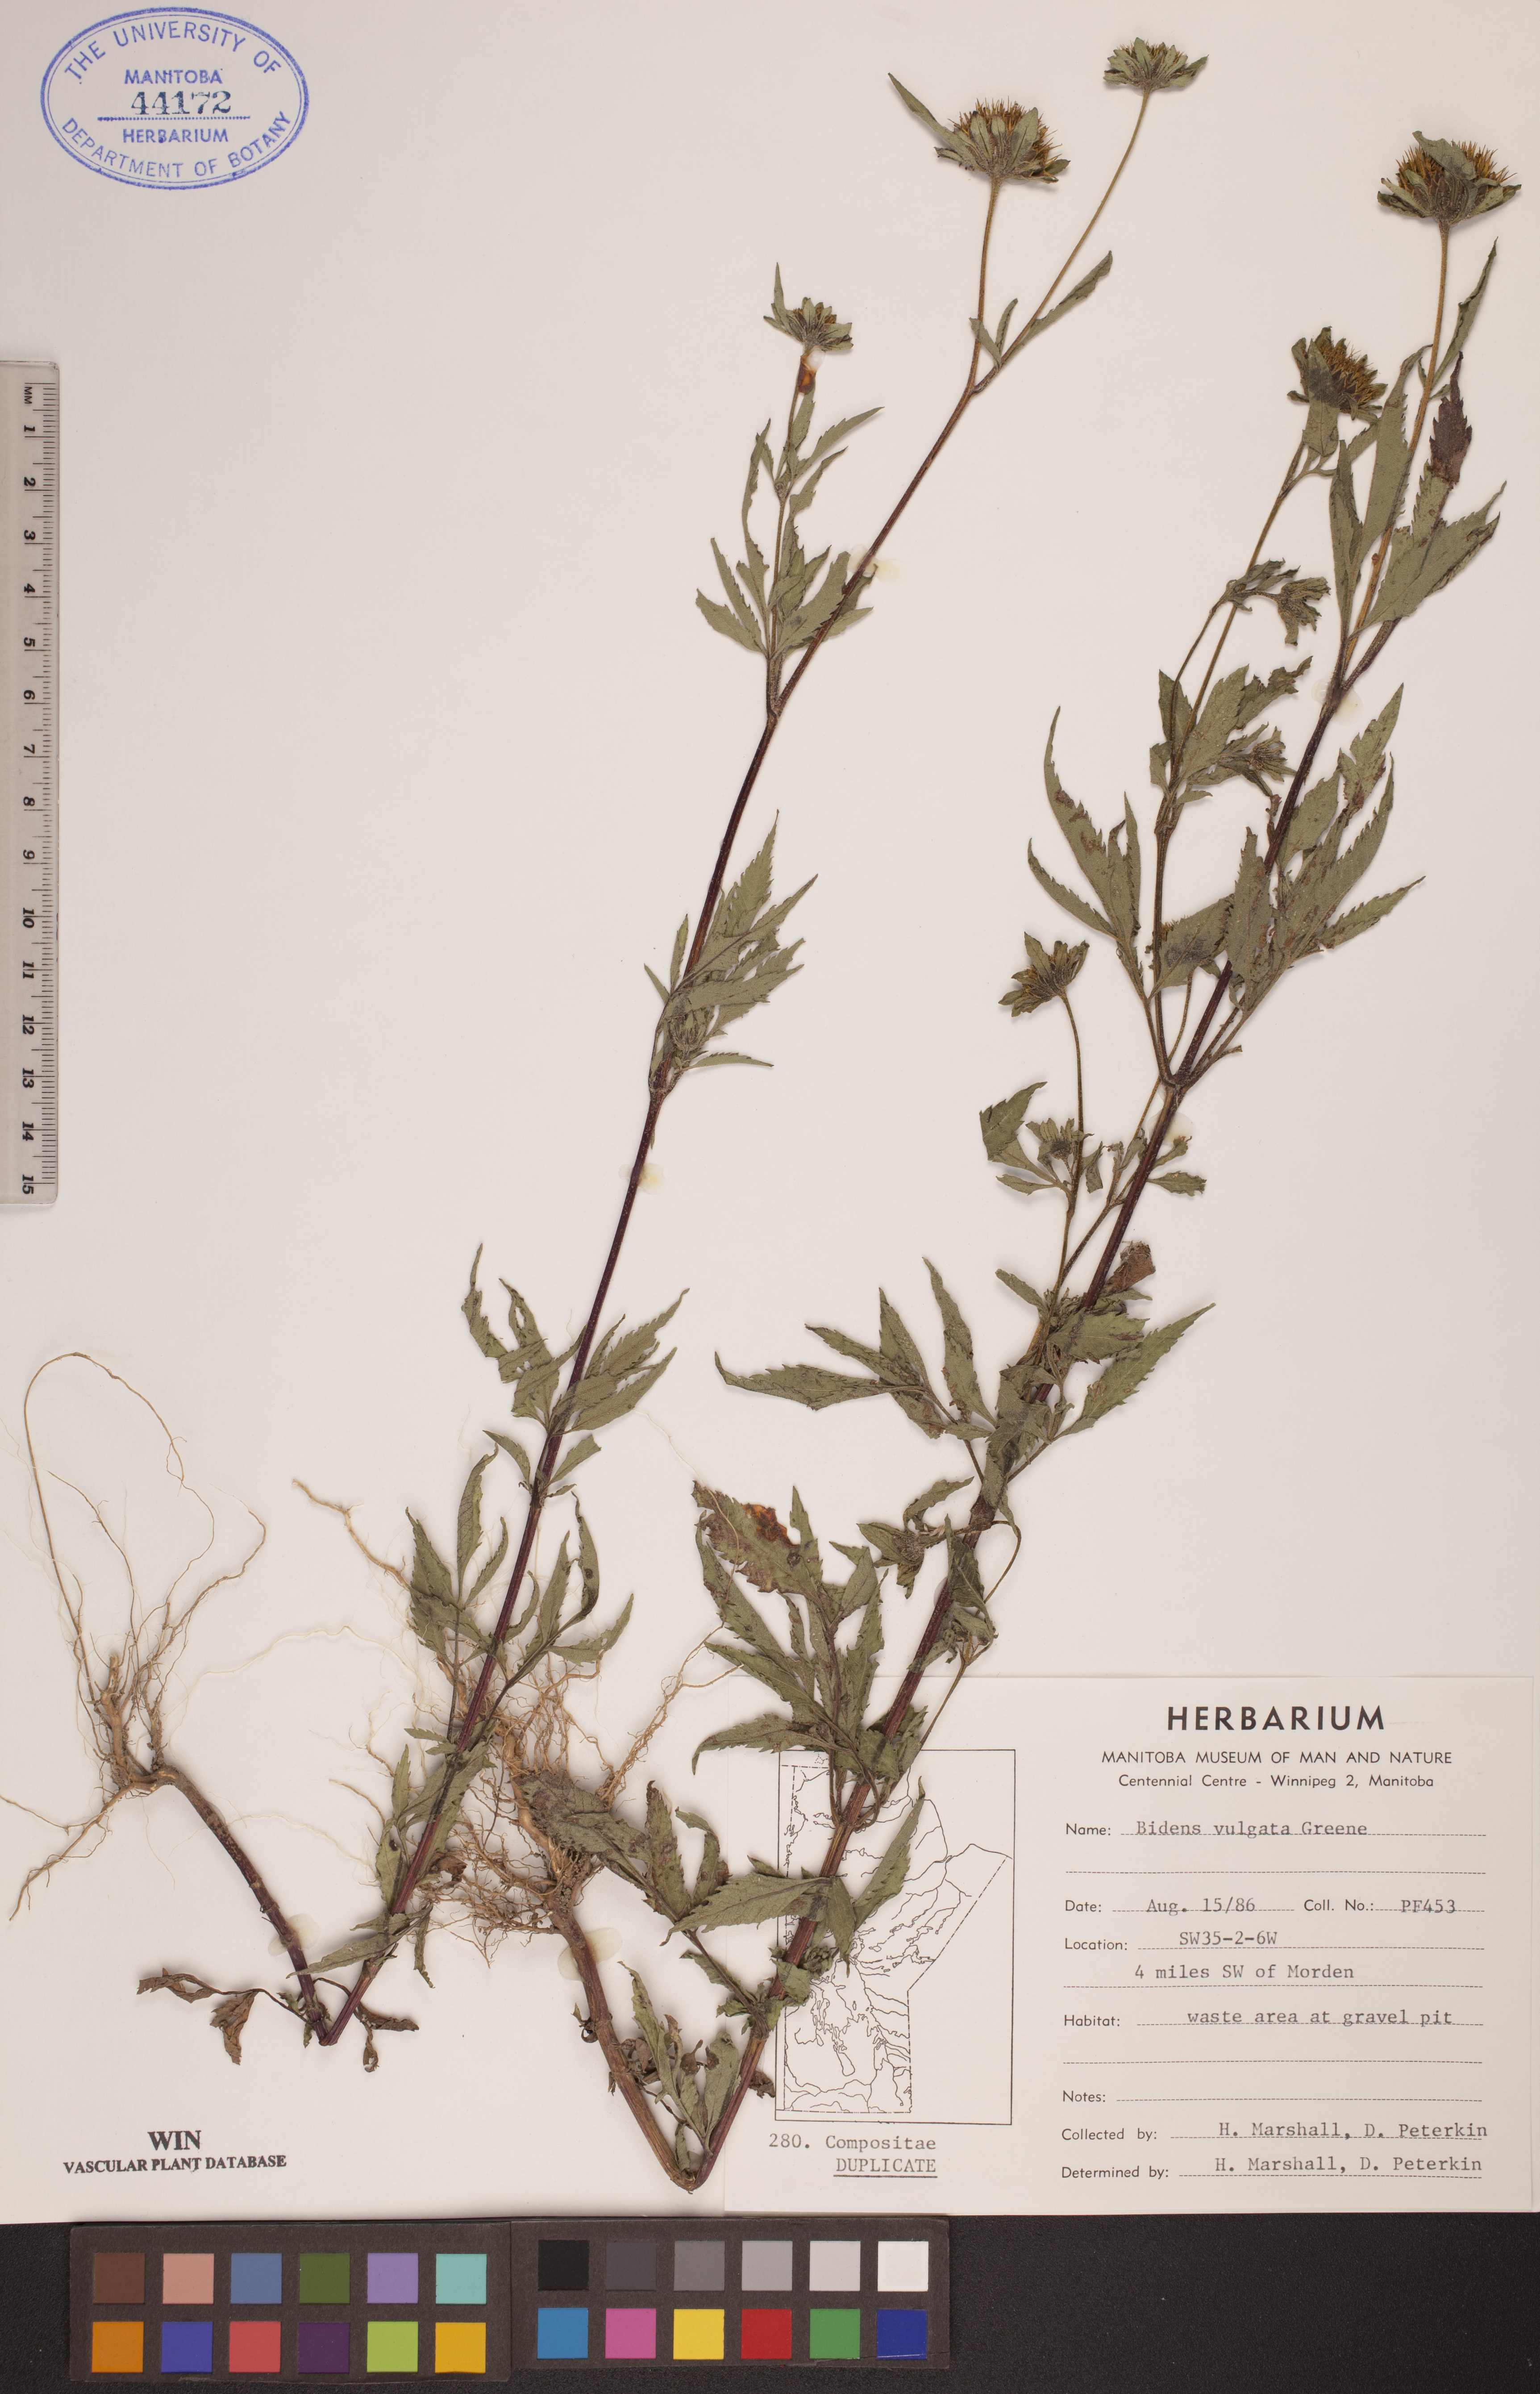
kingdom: Plantae
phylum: Tracheophyta
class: Magnoliopsida
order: Asterales
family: Asteraceae
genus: Bidens
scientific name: Bidens vulgata
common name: Tall beggarticks
